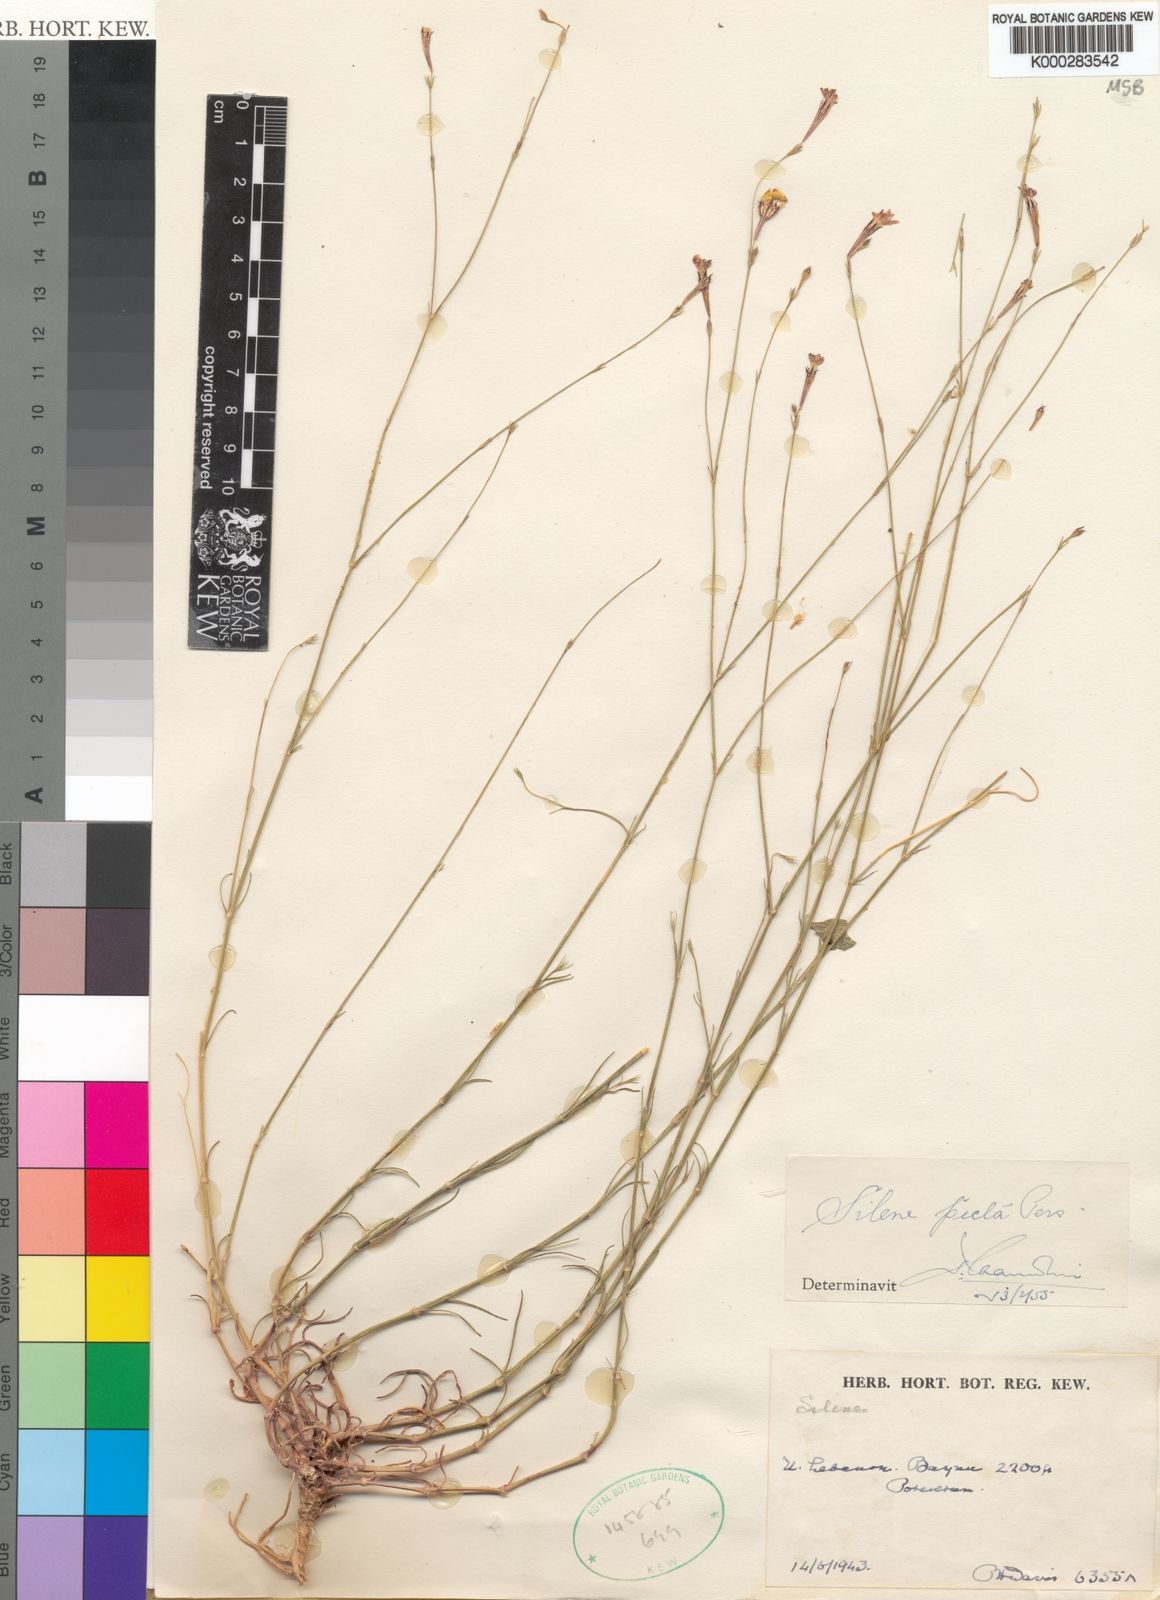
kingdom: Plantae
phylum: Tracheophyta
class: Magnoliopsida
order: Caryophyllales
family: Caryophyllaceae
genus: Silene
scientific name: Silene corinthiaca
